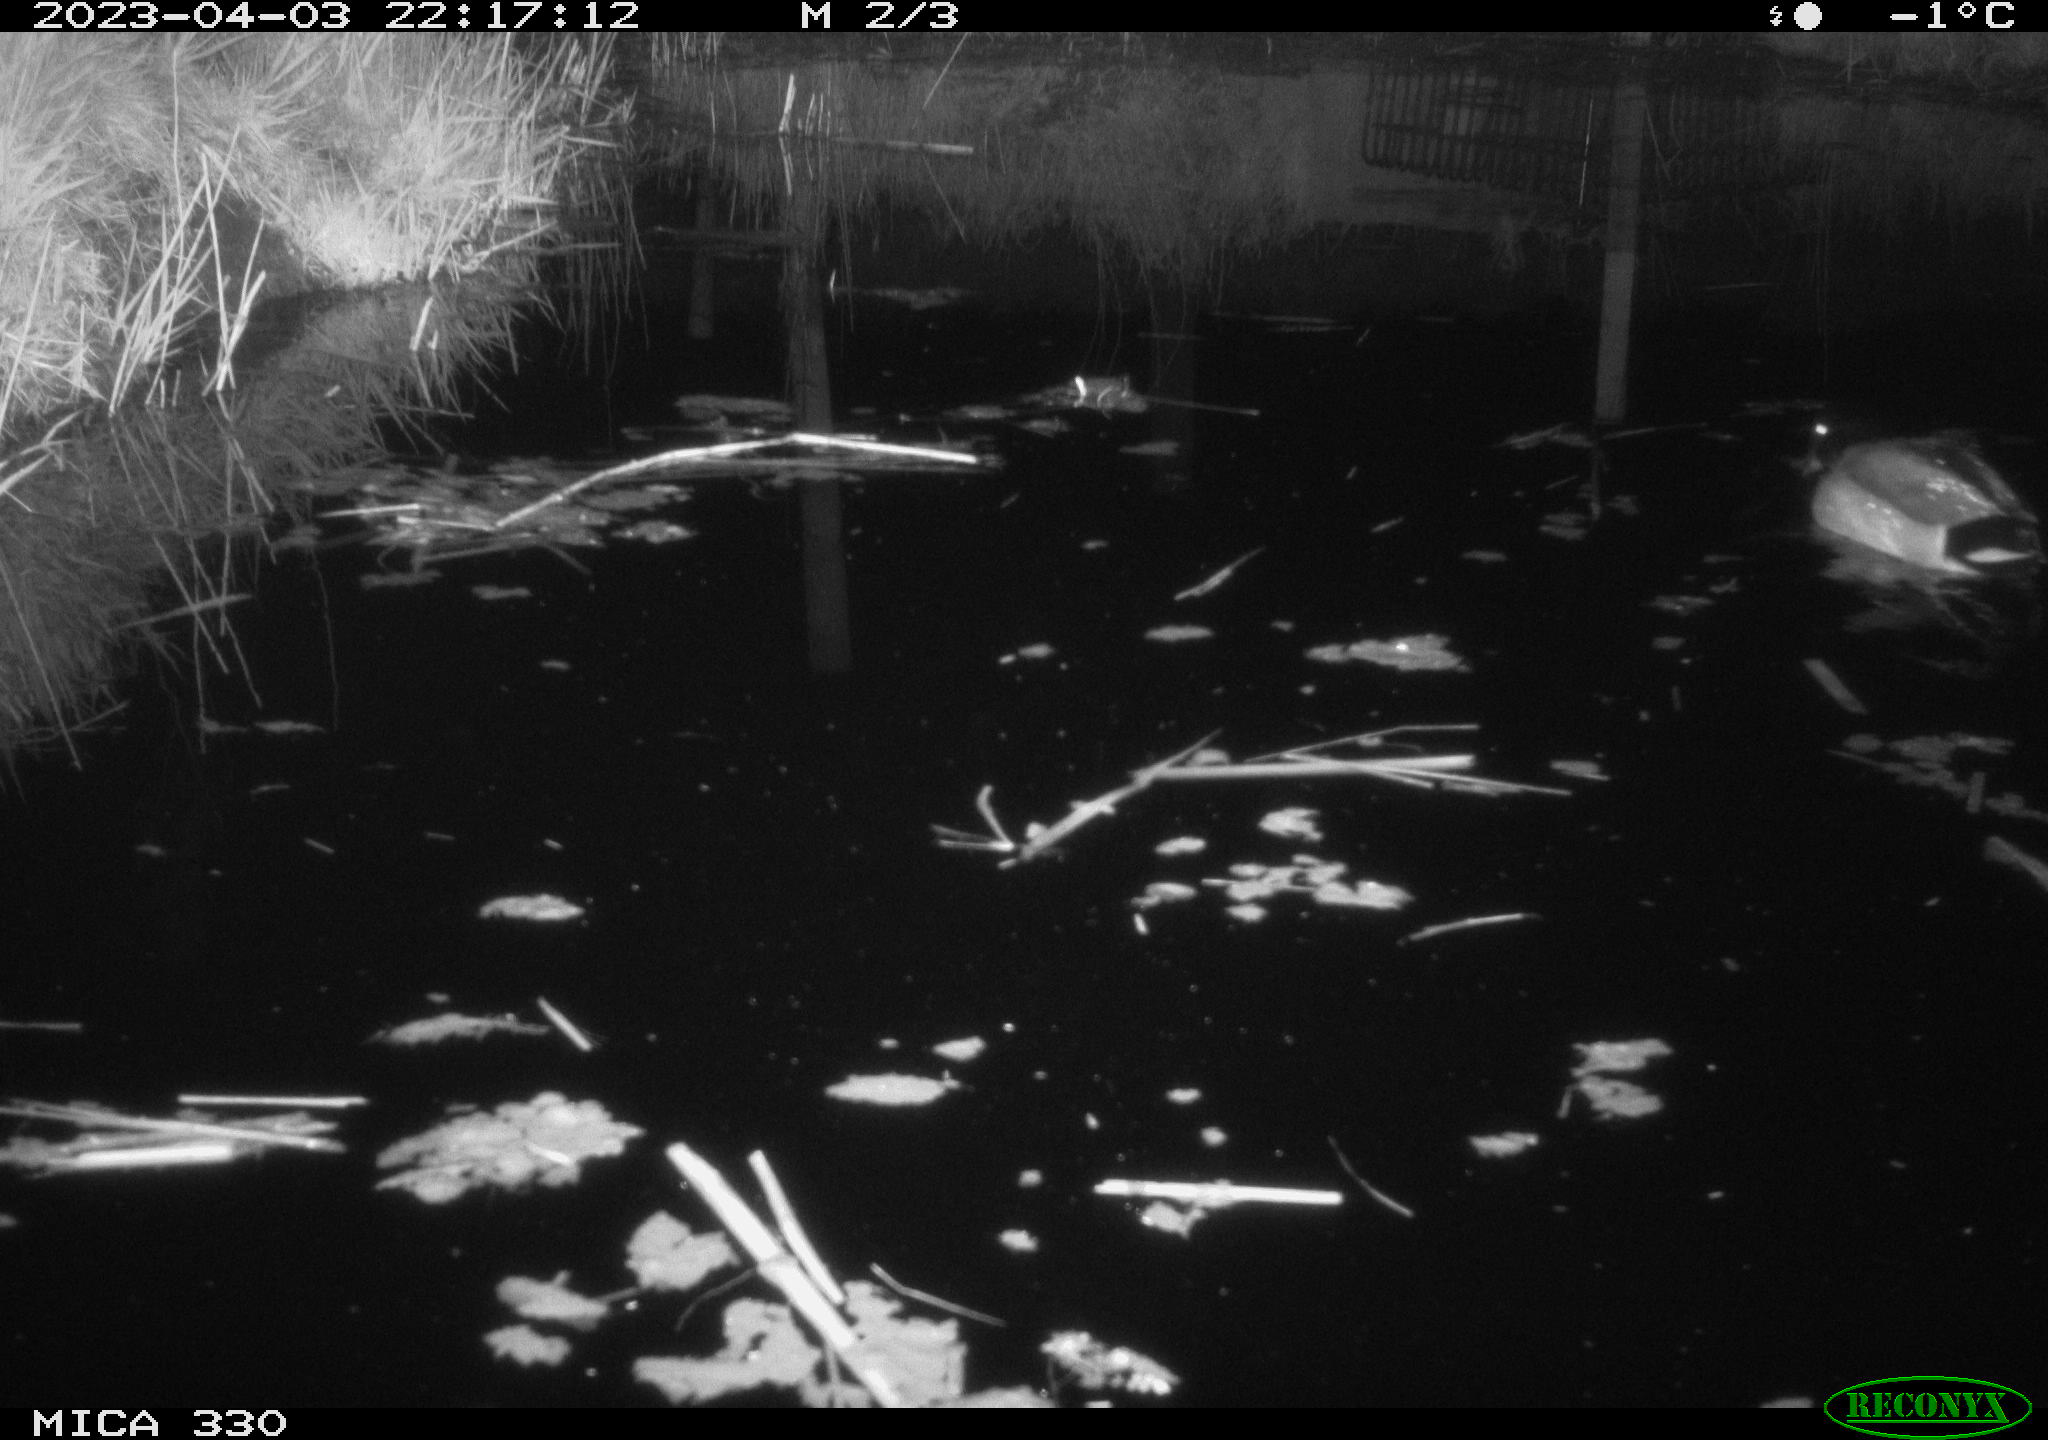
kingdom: Animalia
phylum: Chordata
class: Aves
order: Anseriformes
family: Anatidae
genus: Anas
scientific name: Anas
